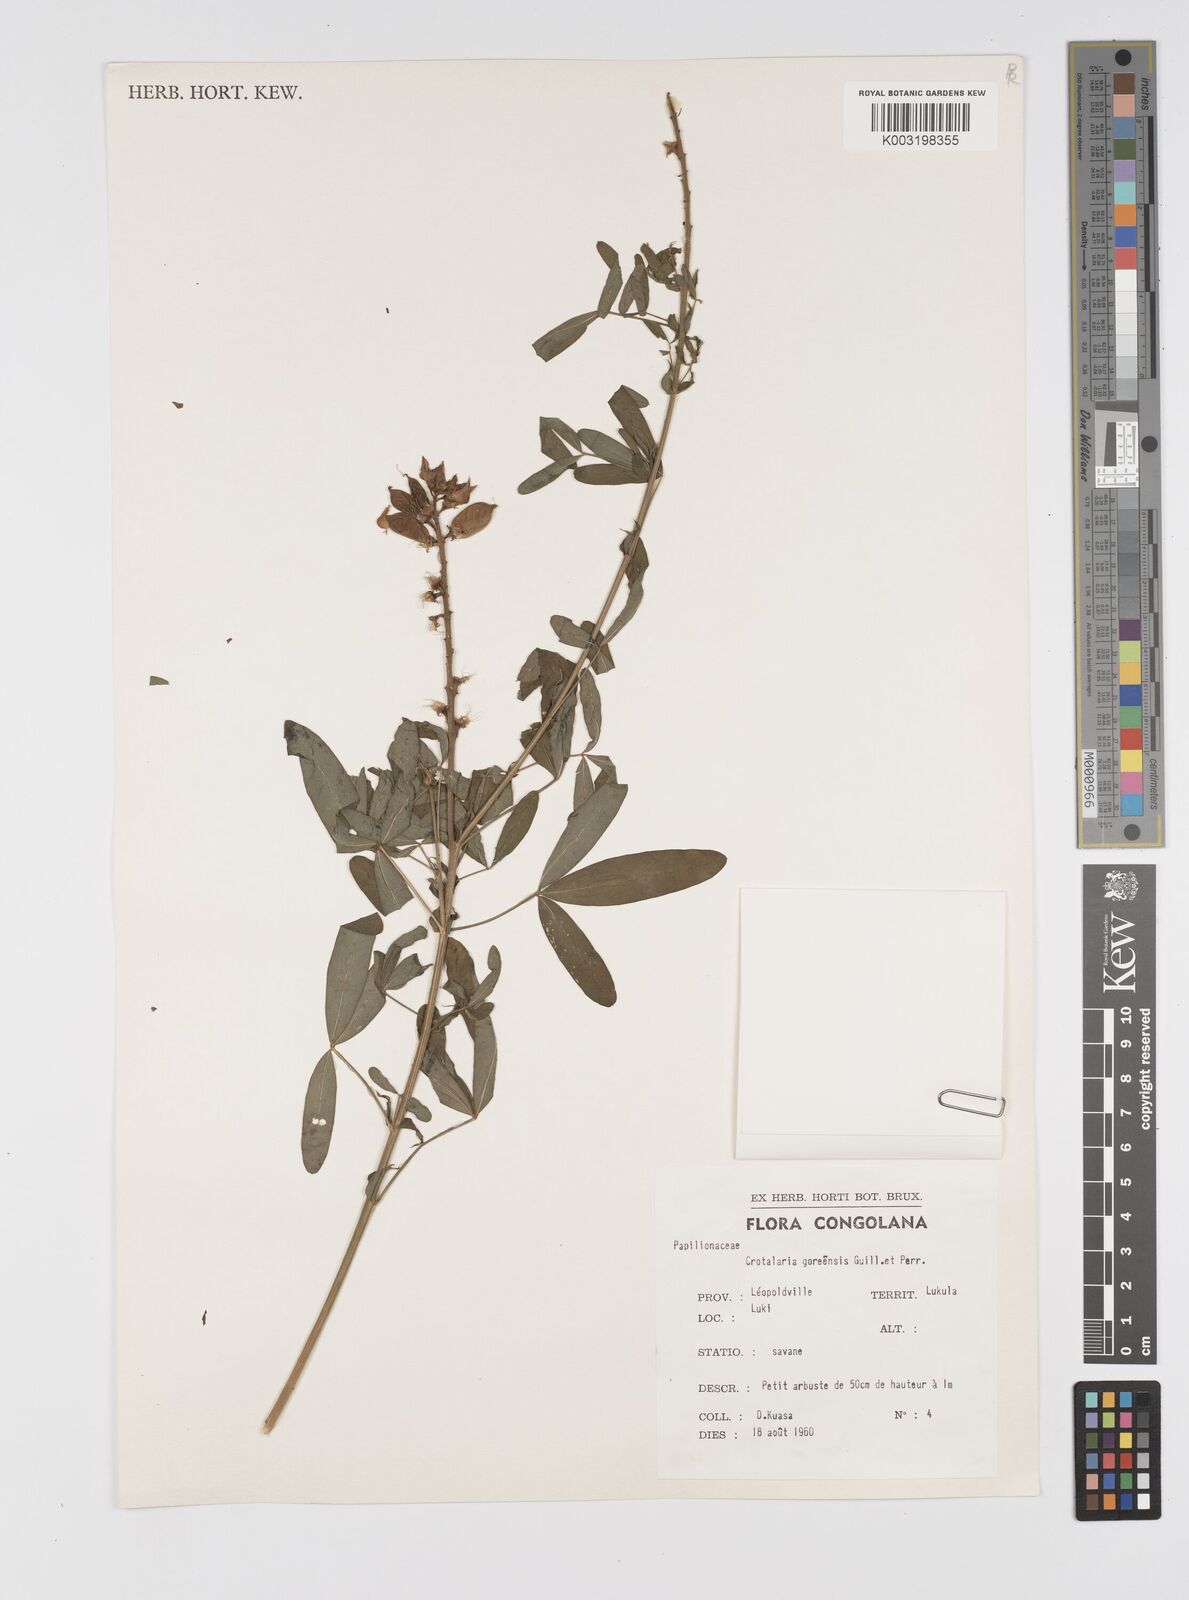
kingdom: Plantae
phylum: Tracheophyta
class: Magnoliopsida
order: Fabales
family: Fabaceae
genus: Crotalaria
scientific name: Crotalaria goreensis
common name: Gambia-pea
